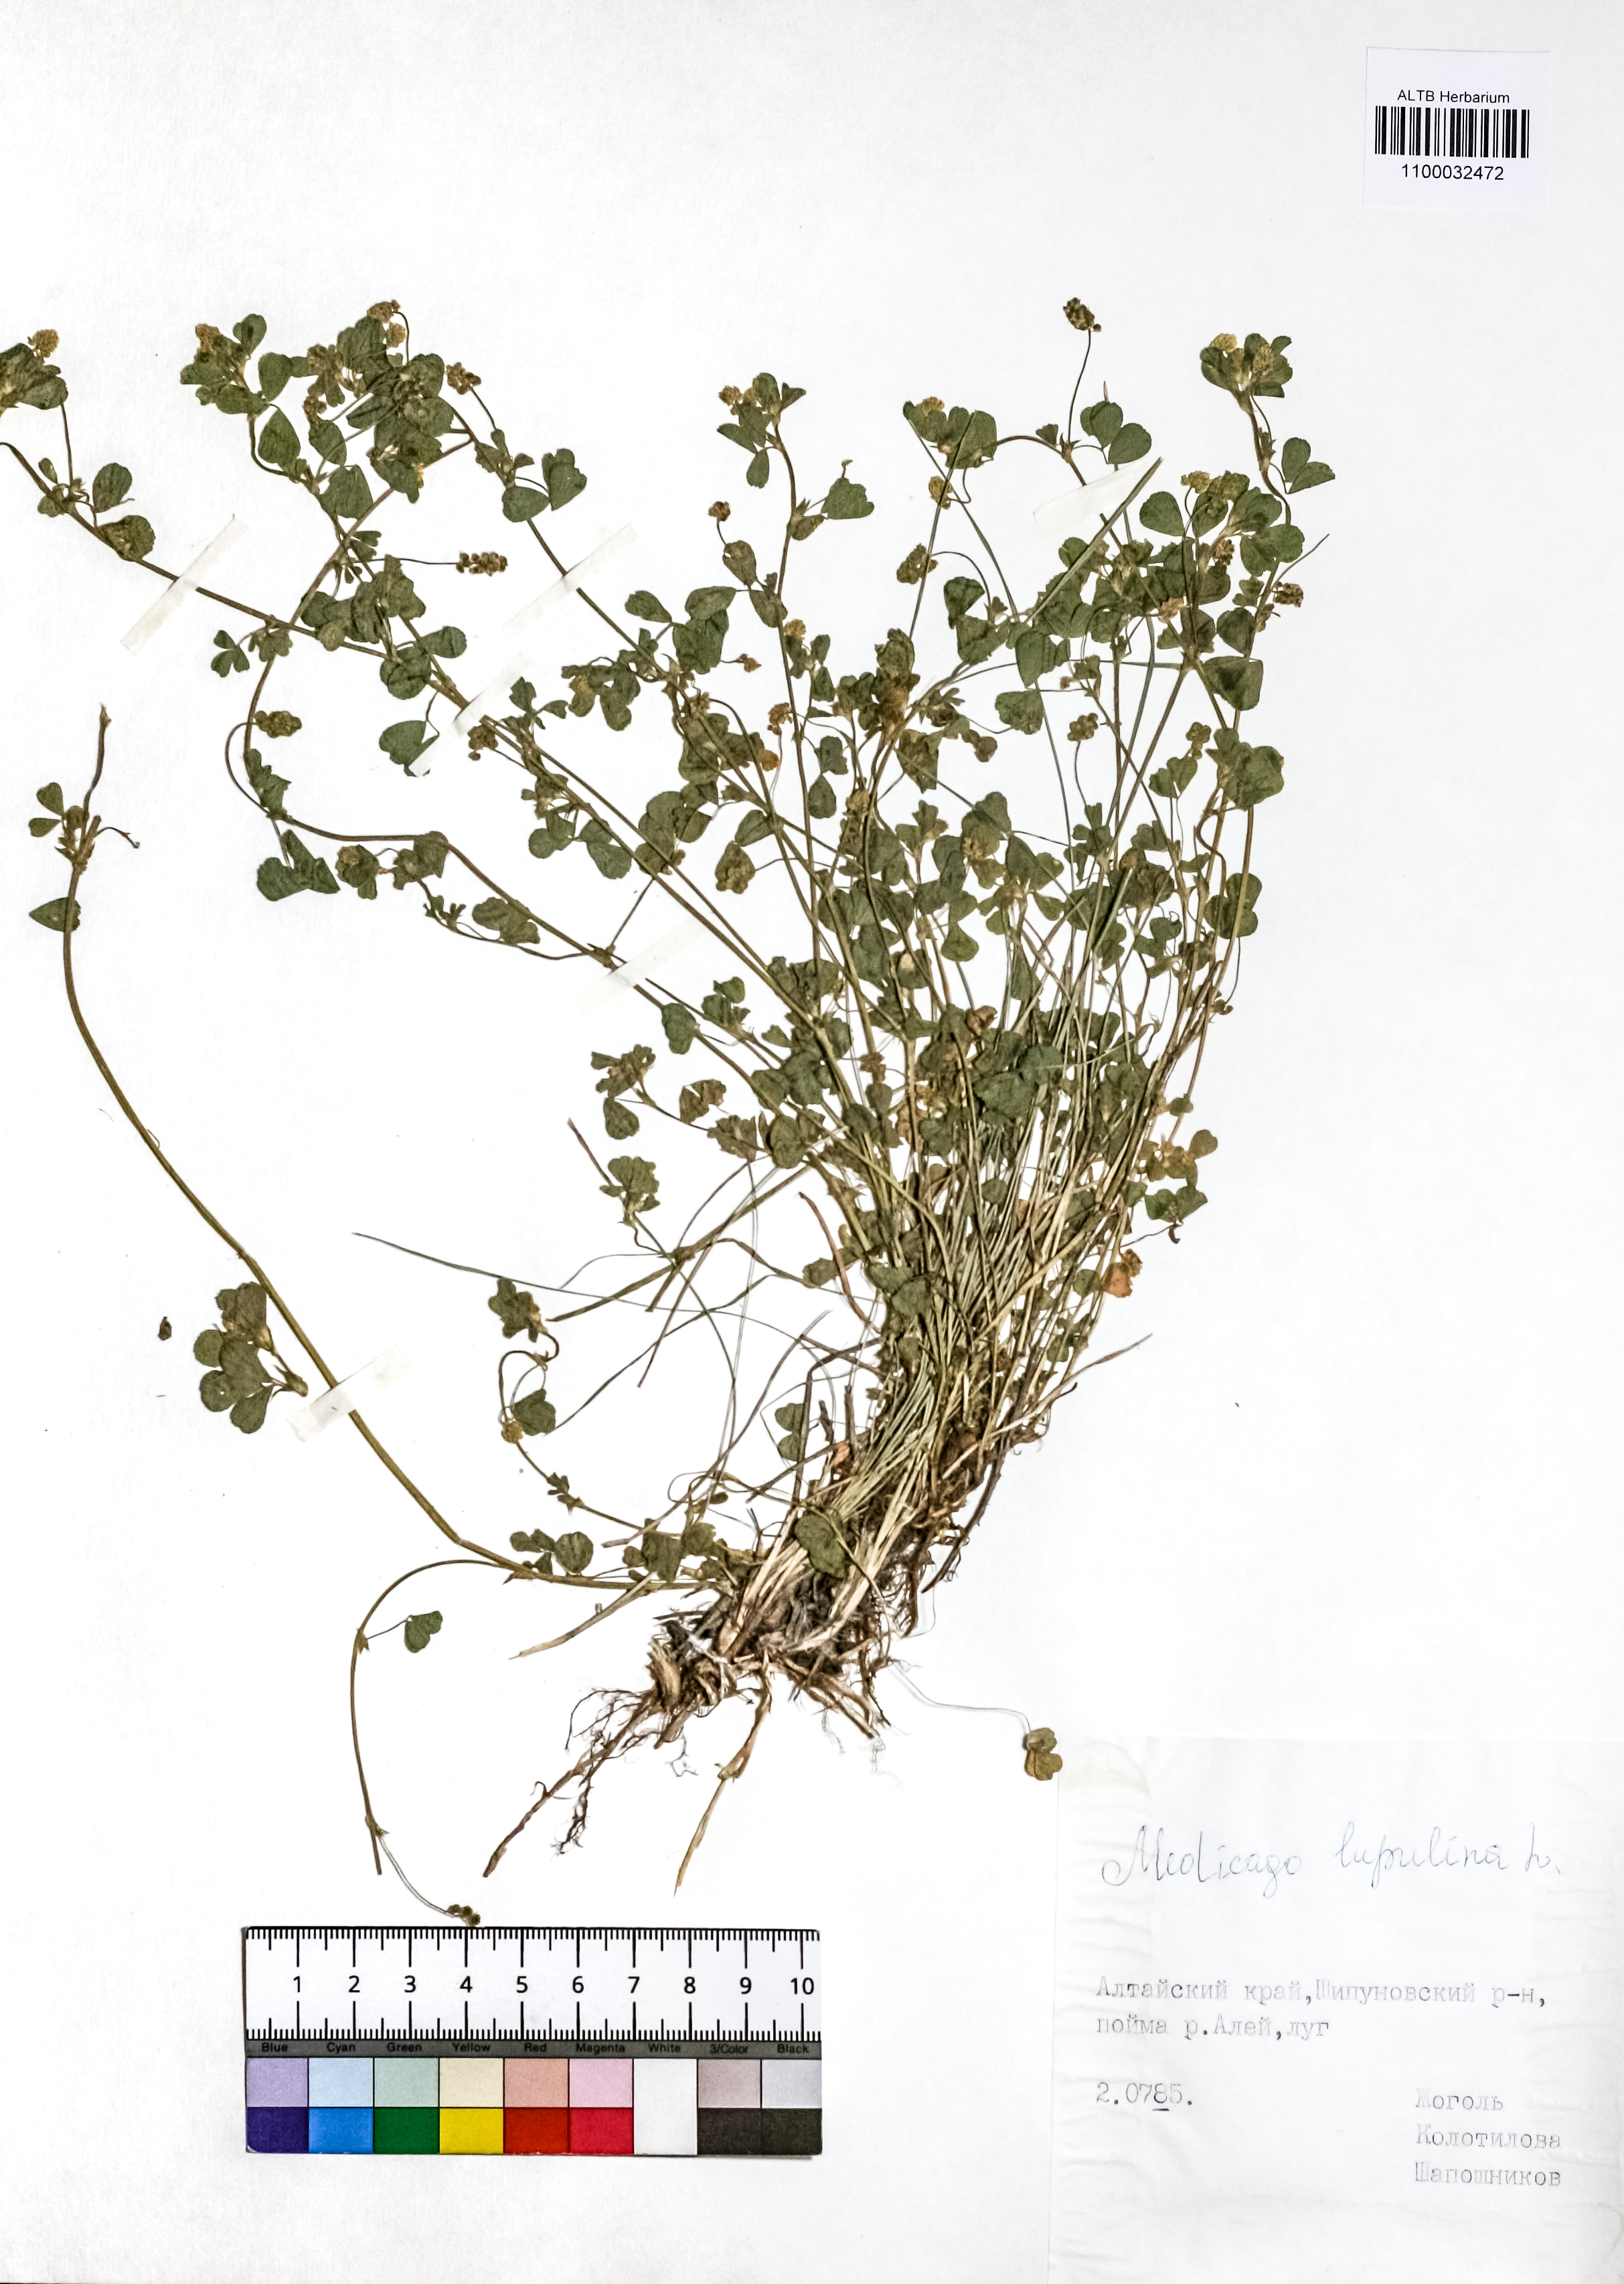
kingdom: Plantae
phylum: Tracheophyta
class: Magnoliopsida
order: Fabales
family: Fabaceae
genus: Medicago
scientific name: Medicago lupulina
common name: Black medick
